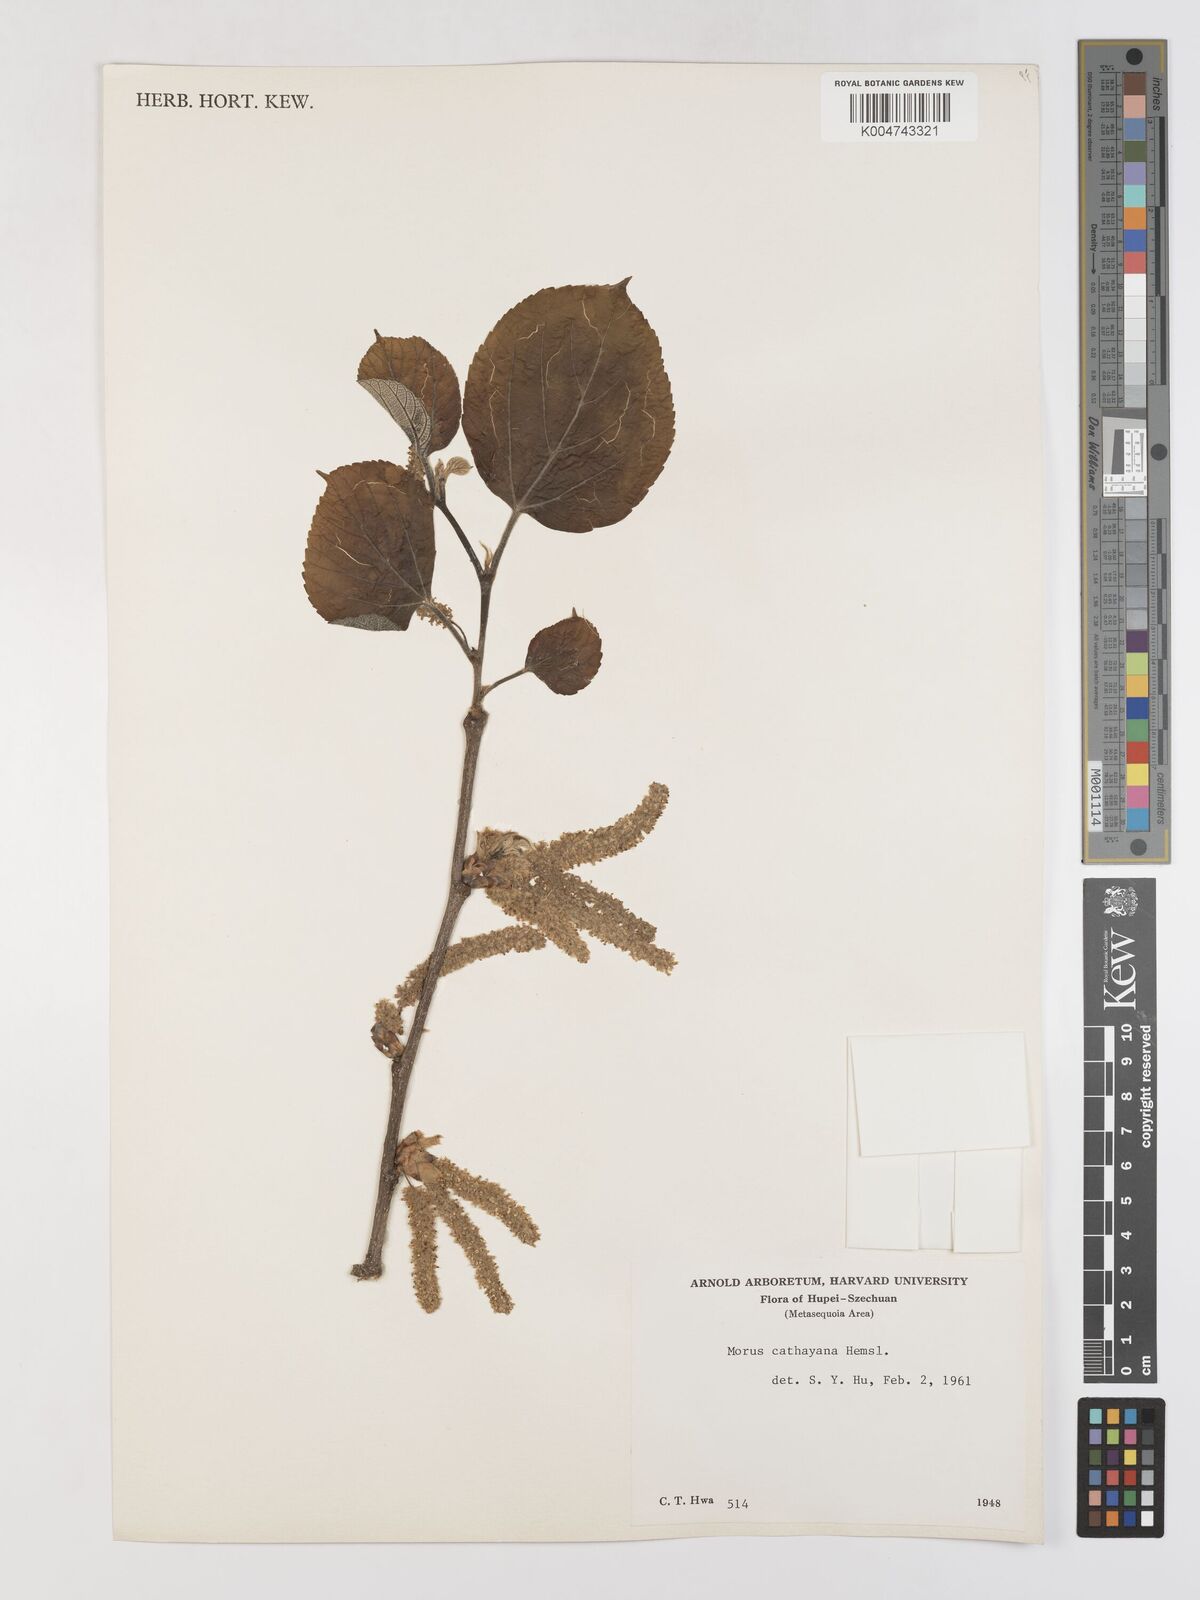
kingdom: Plantae
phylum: Tracheophyta
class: Magnoliopsida
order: Rosales
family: Moraceae
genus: Morus
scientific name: Morus cathayana
